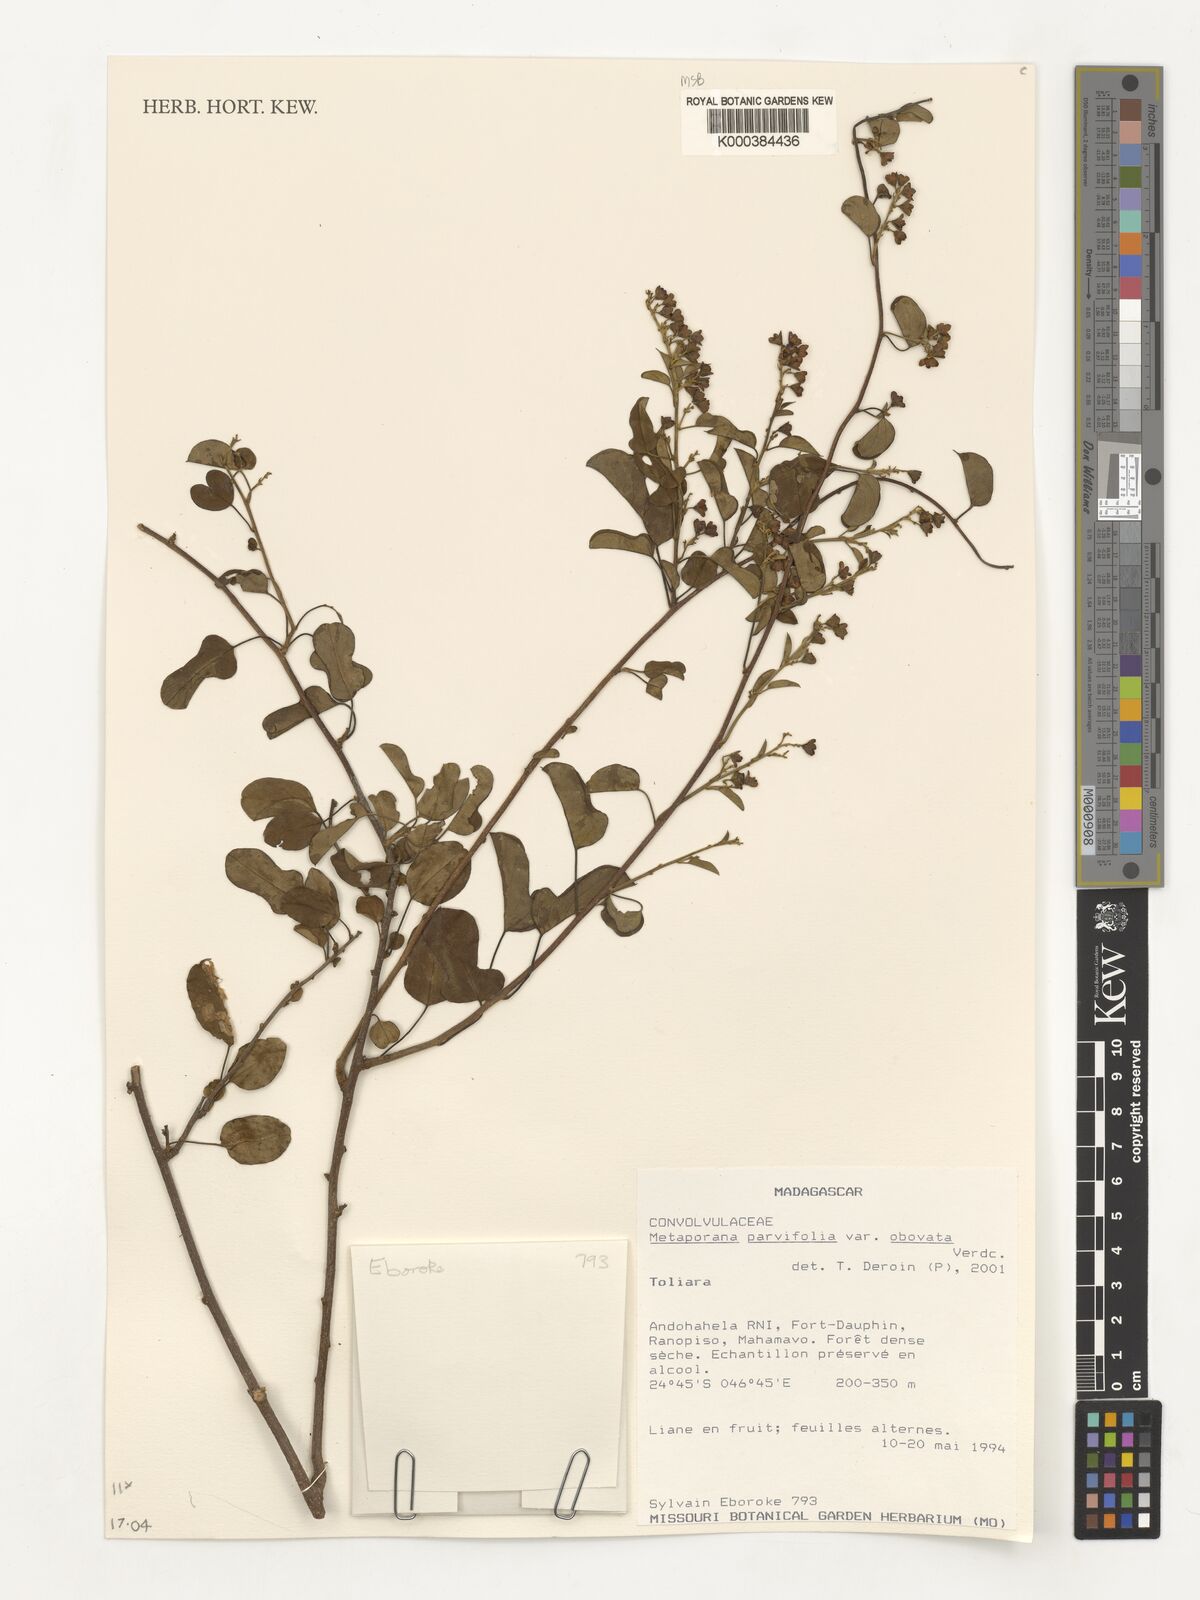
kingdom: Plantae
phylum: Tracheophyta
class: Magnoliopsida
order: Solanales
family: Convolvulaceae
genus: Metaporana
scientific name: Metaporana parvifolia
